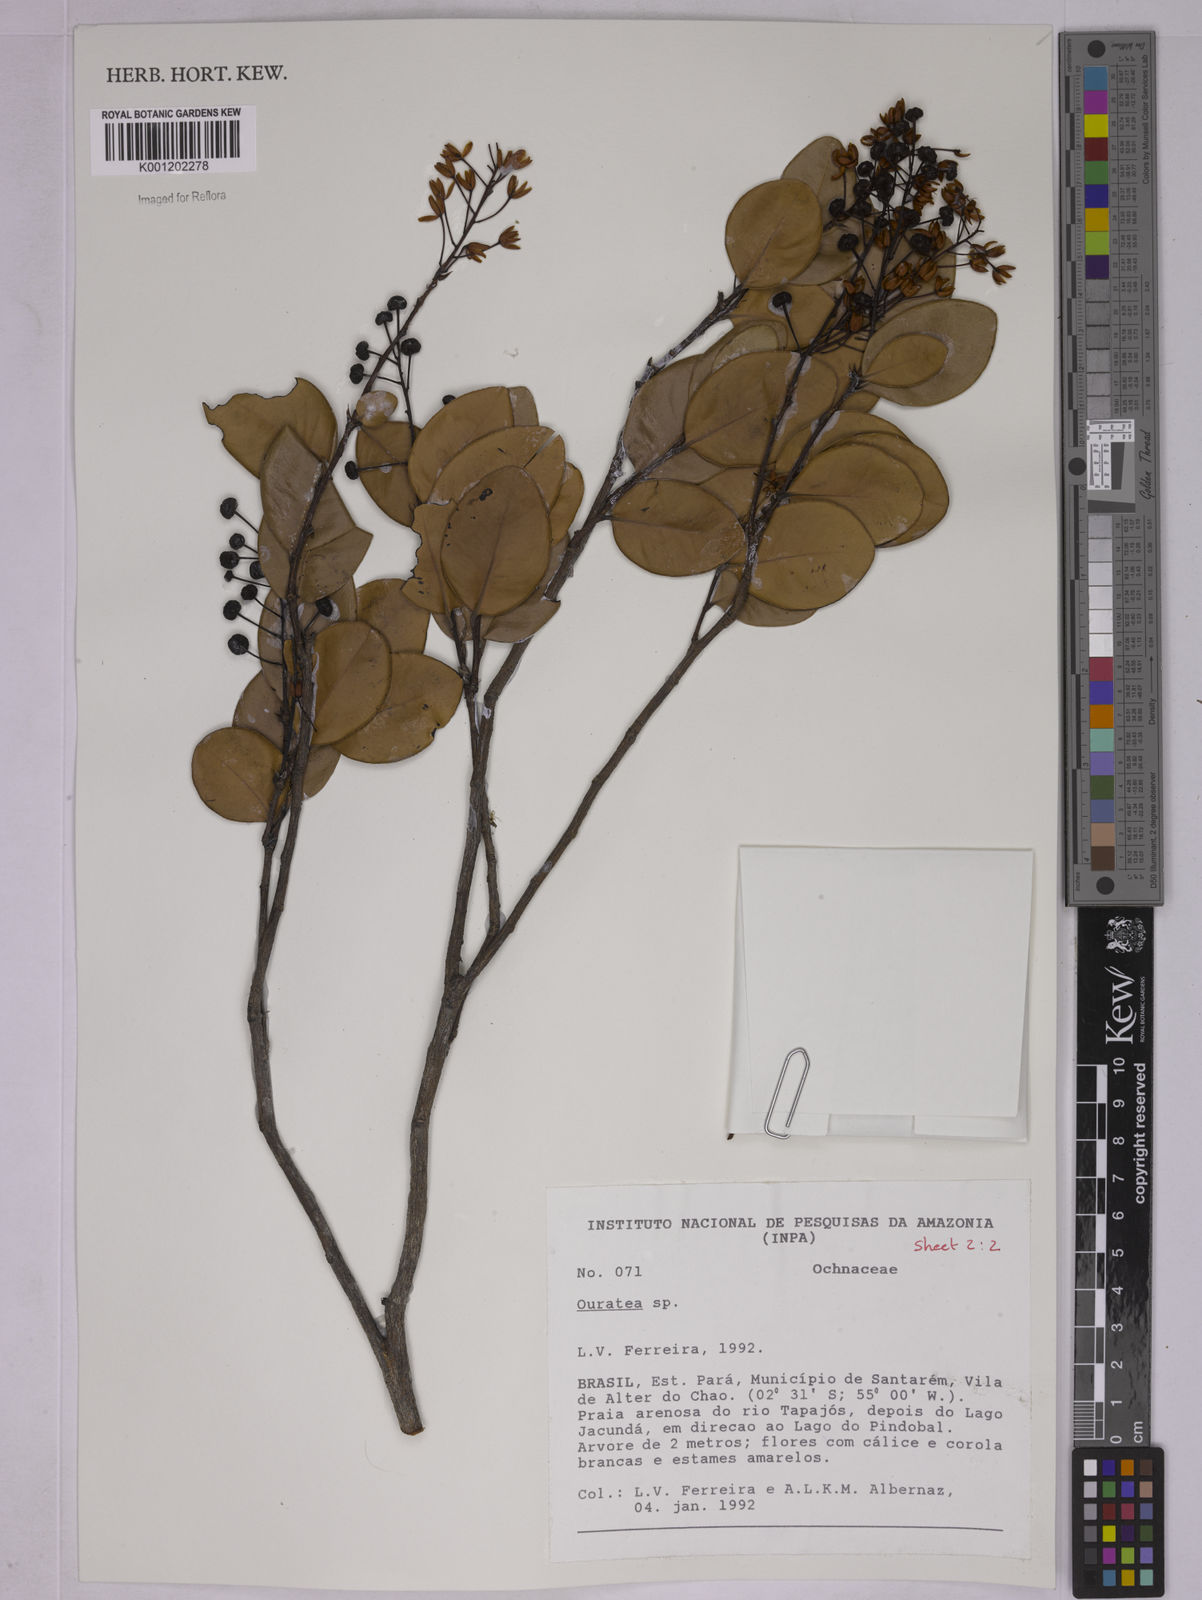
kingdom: Plantae
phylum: Tracheophyta
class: Magnoliopsida
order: Malpighiales
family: Ochnaceae
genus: Ouratea
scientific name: Ouratea
